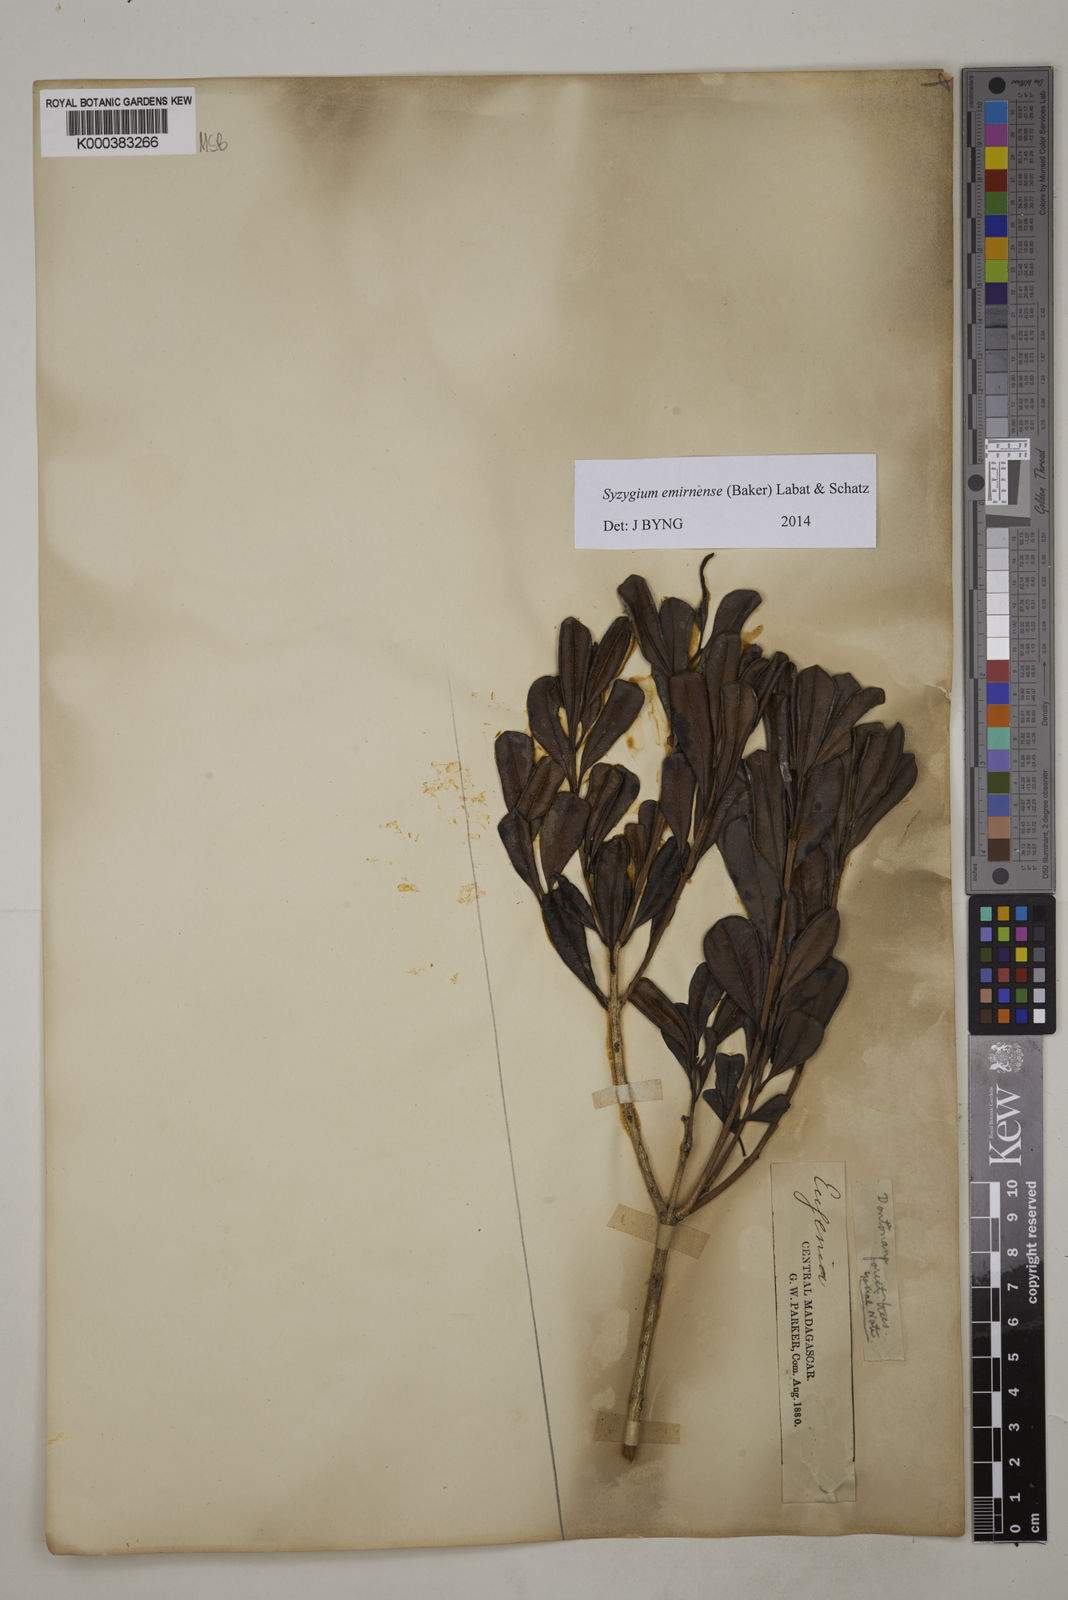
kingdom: Plantae
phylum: Tracheophyta
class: Magnoliopsida
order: Myrtales
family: Myrtaceae
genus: Syzygium
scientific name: Syzygium emirnense
